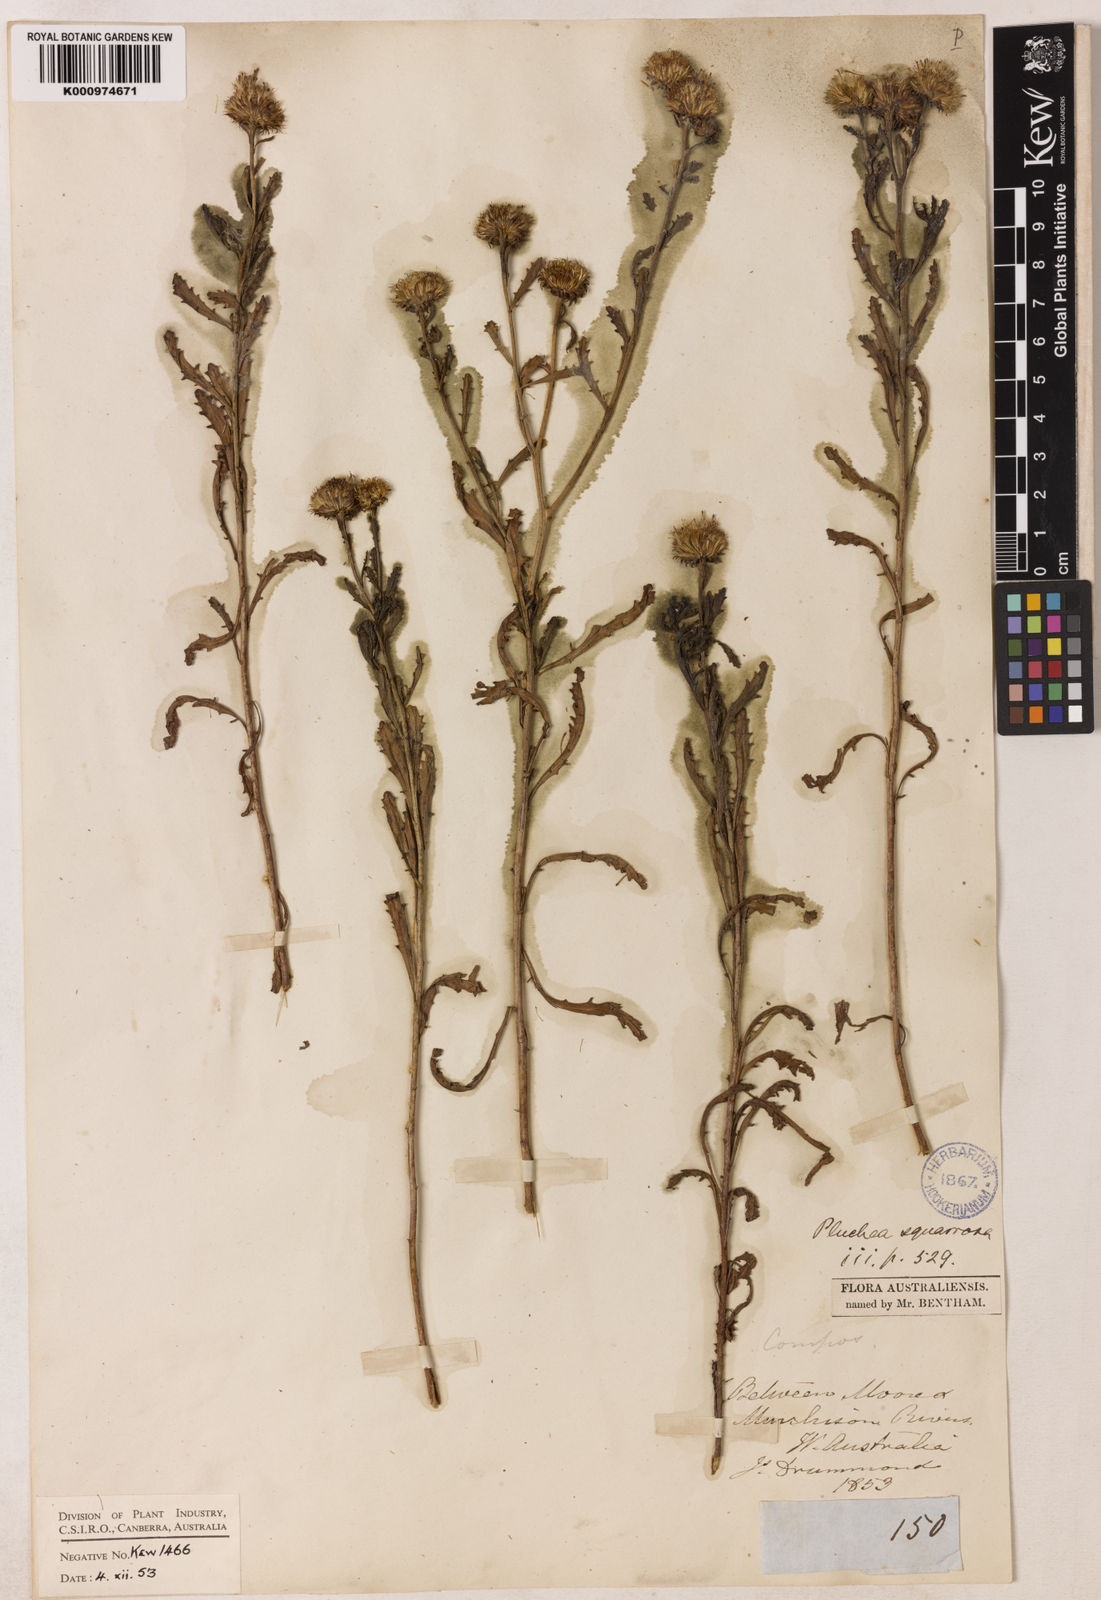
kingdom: Plantae
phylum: Tracheophyta
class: Magnoliopsida
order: Asterales
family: Asteraceae
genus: Pluchea
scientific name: Pluchea dentex
